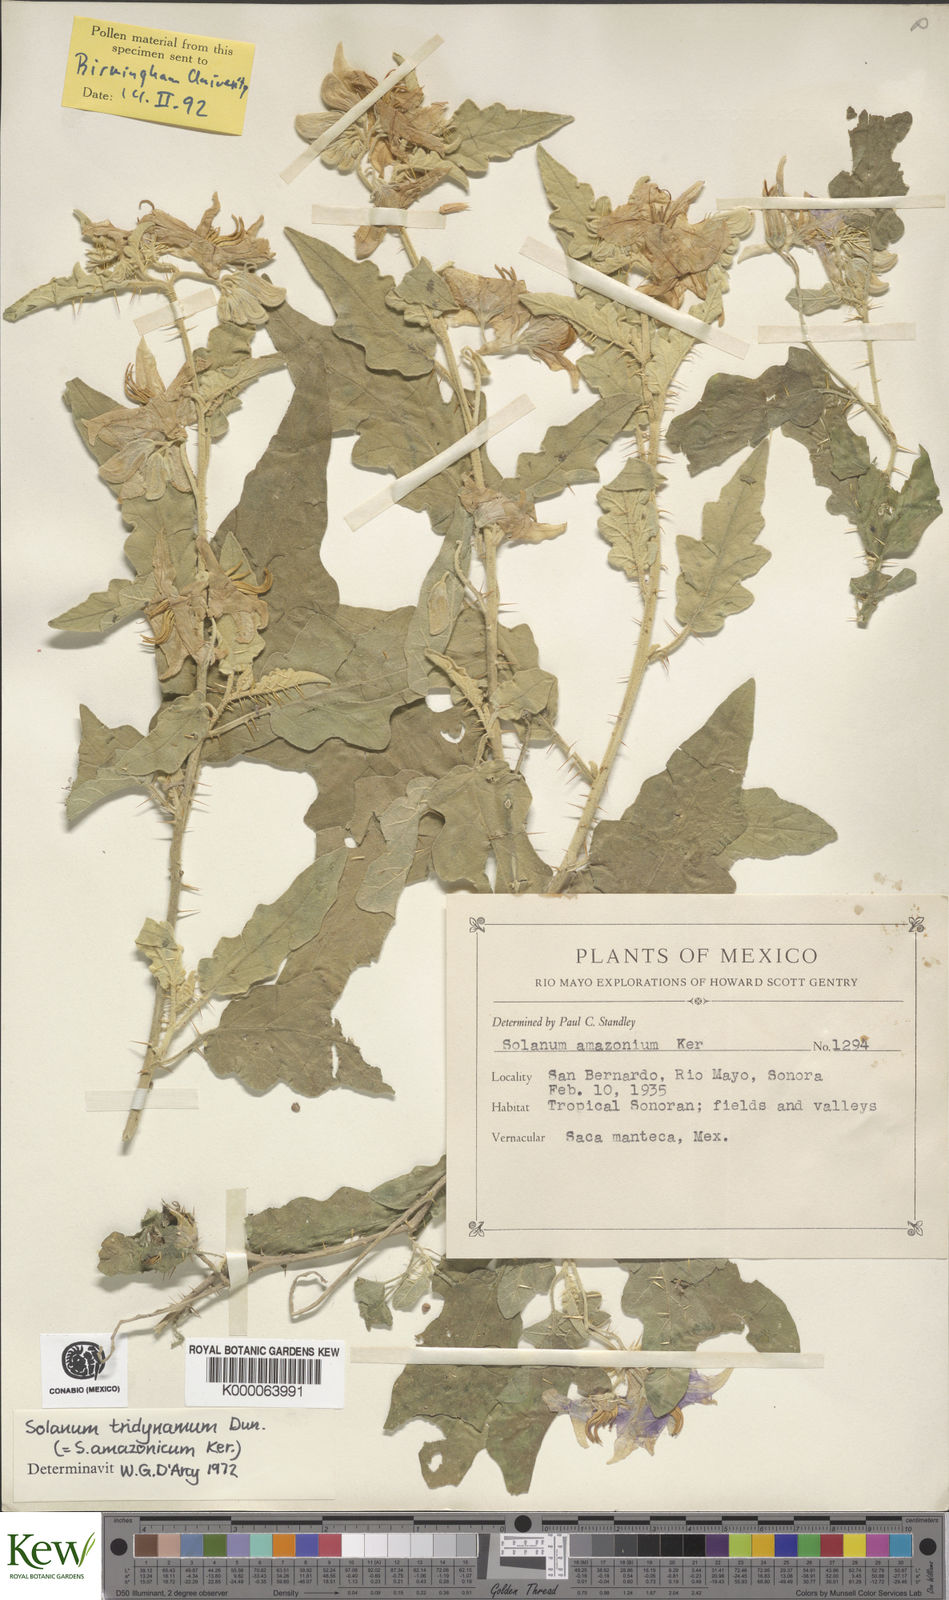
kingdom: Plantae
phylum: Tracheophyta
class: Magnoliopsida
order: Solanales
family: Solanaceae
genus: Solanum
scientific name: Solanum houstonii
